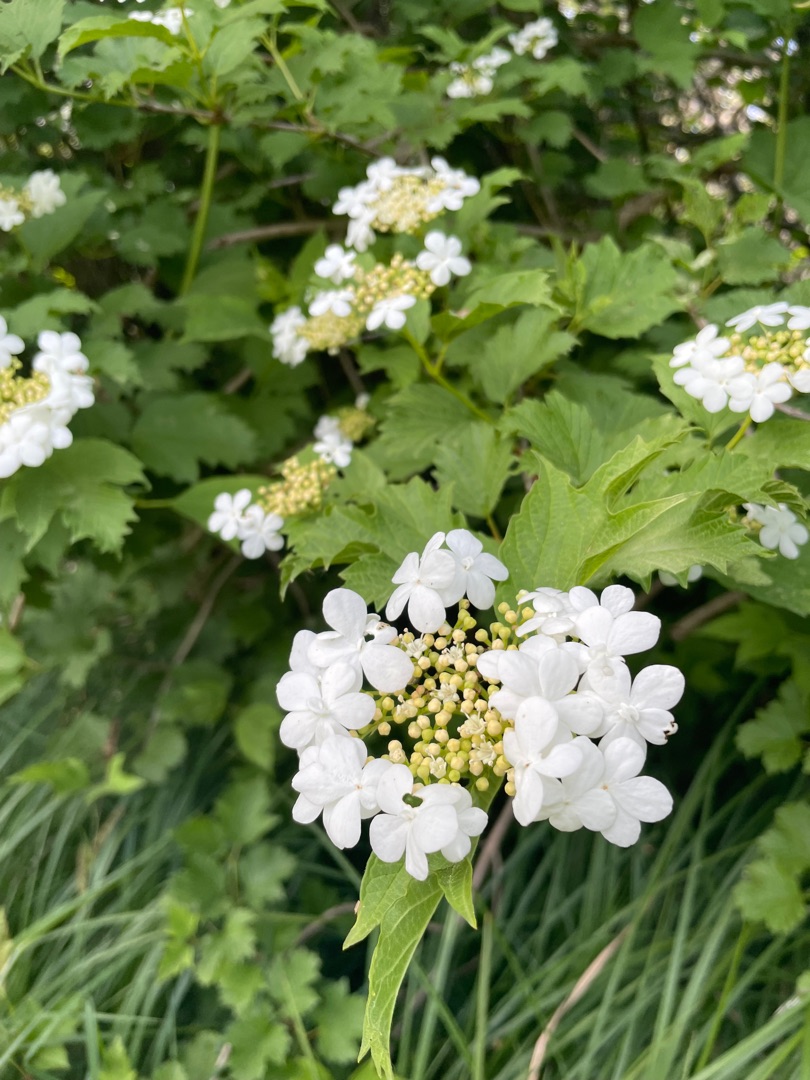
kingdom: Plantae
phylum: Tracheophyta
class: Magnoliopsida
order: Dipsacales
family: Viburnaceae
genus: Viburnum
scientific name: Viburnum opulus
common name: Kvalkved
